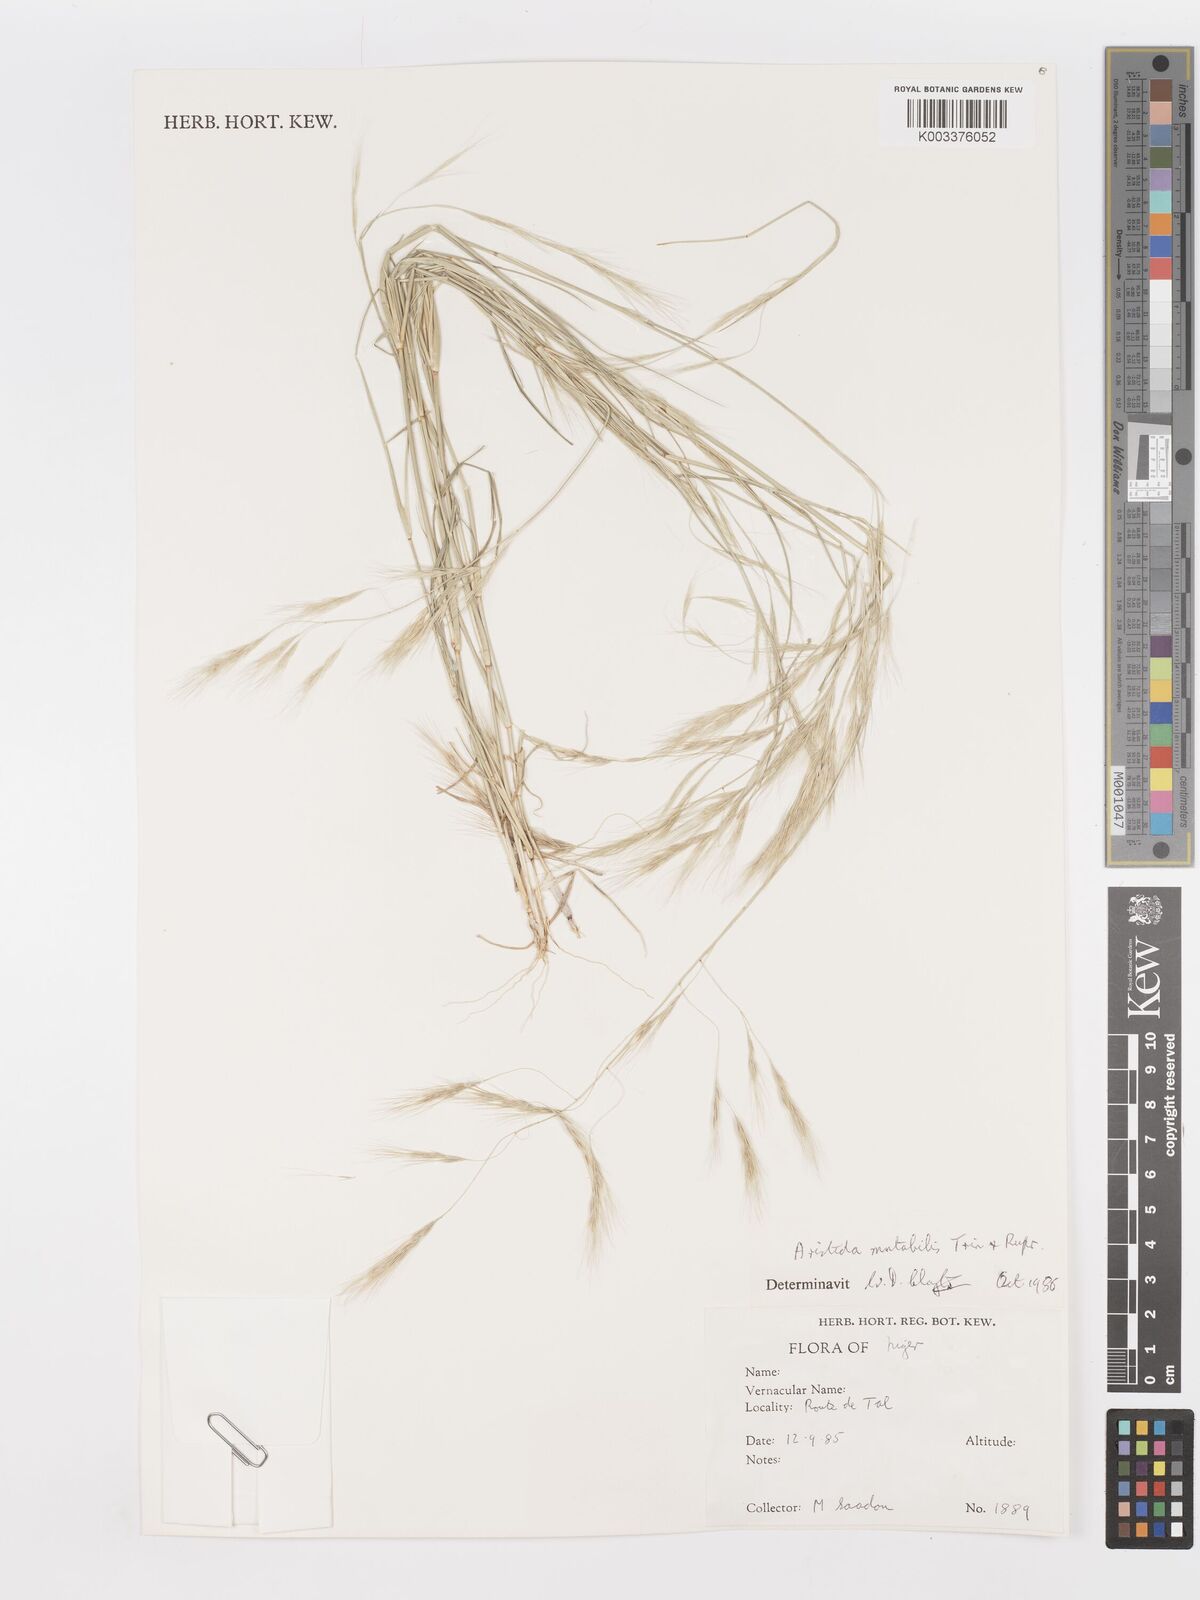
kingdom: Plantae
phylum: Tracheophyta
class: Liliopsida
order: Poales
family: Poaceae
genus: Aristida
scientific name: Aristida mutabilis
